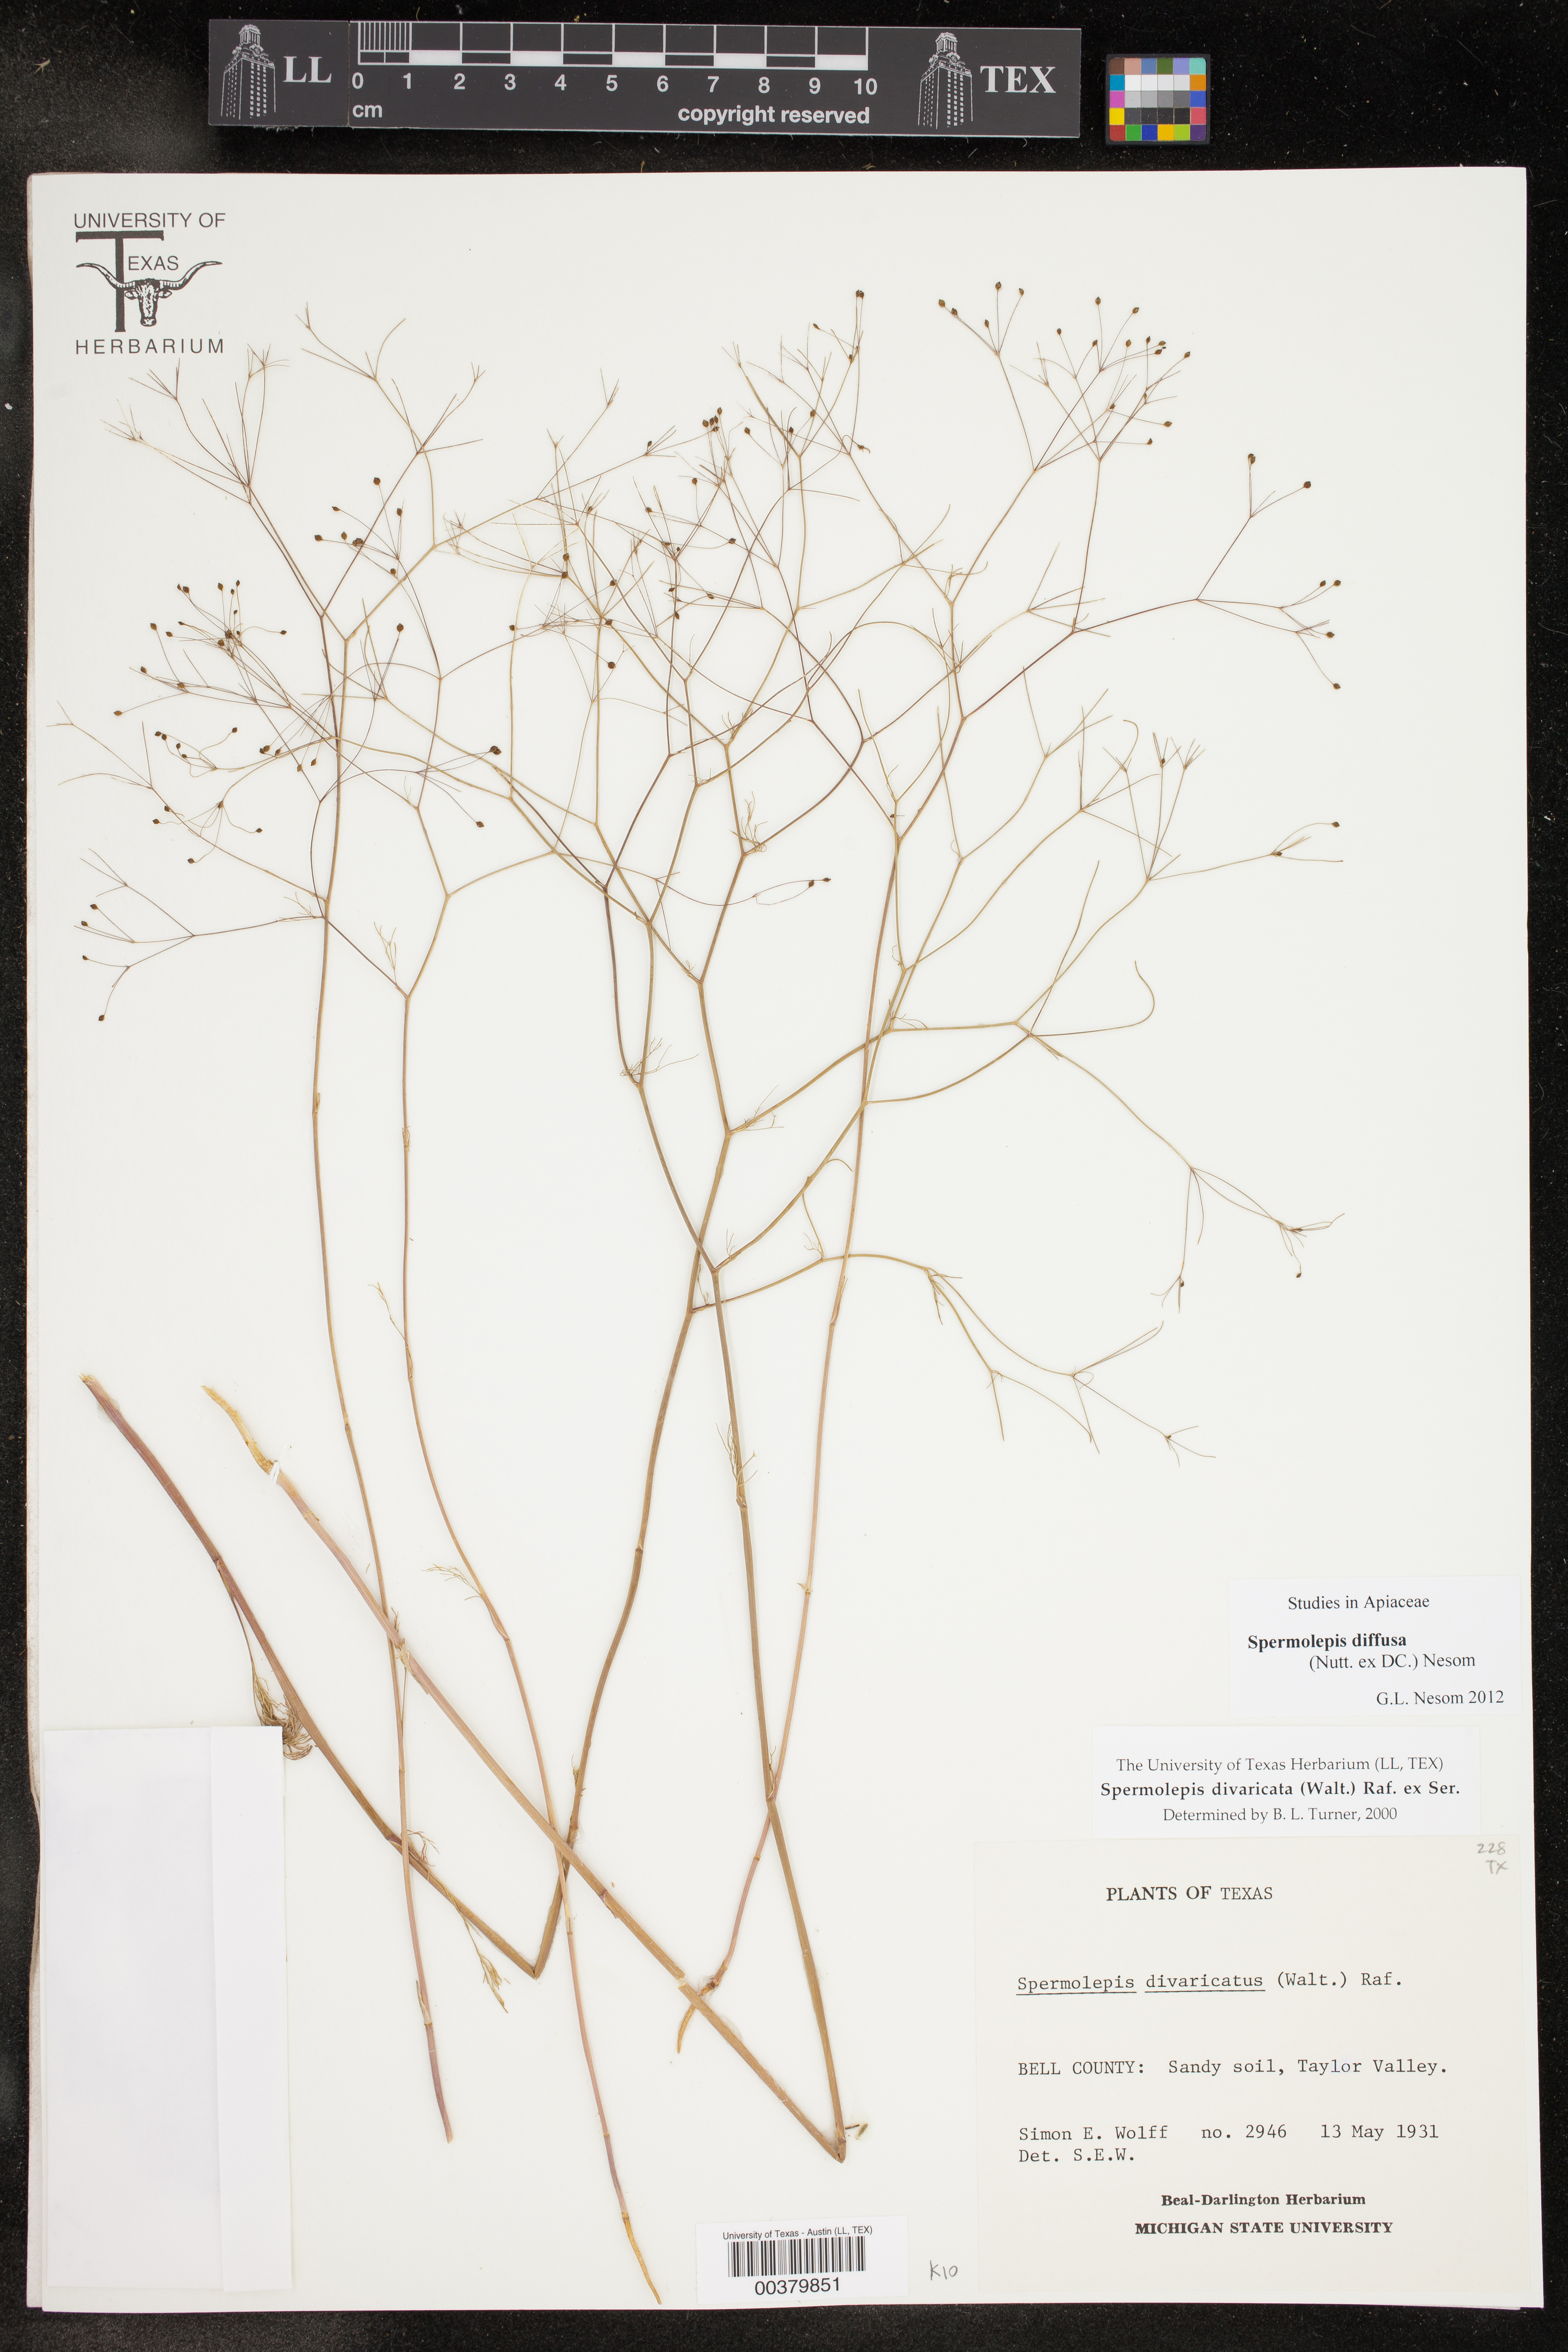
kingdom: Plantae
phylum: Tracheophyta
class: Magnoliopsida
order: Apiales
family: Apiaceae
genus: Spermolepis
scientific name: Spermolepis diffusa
